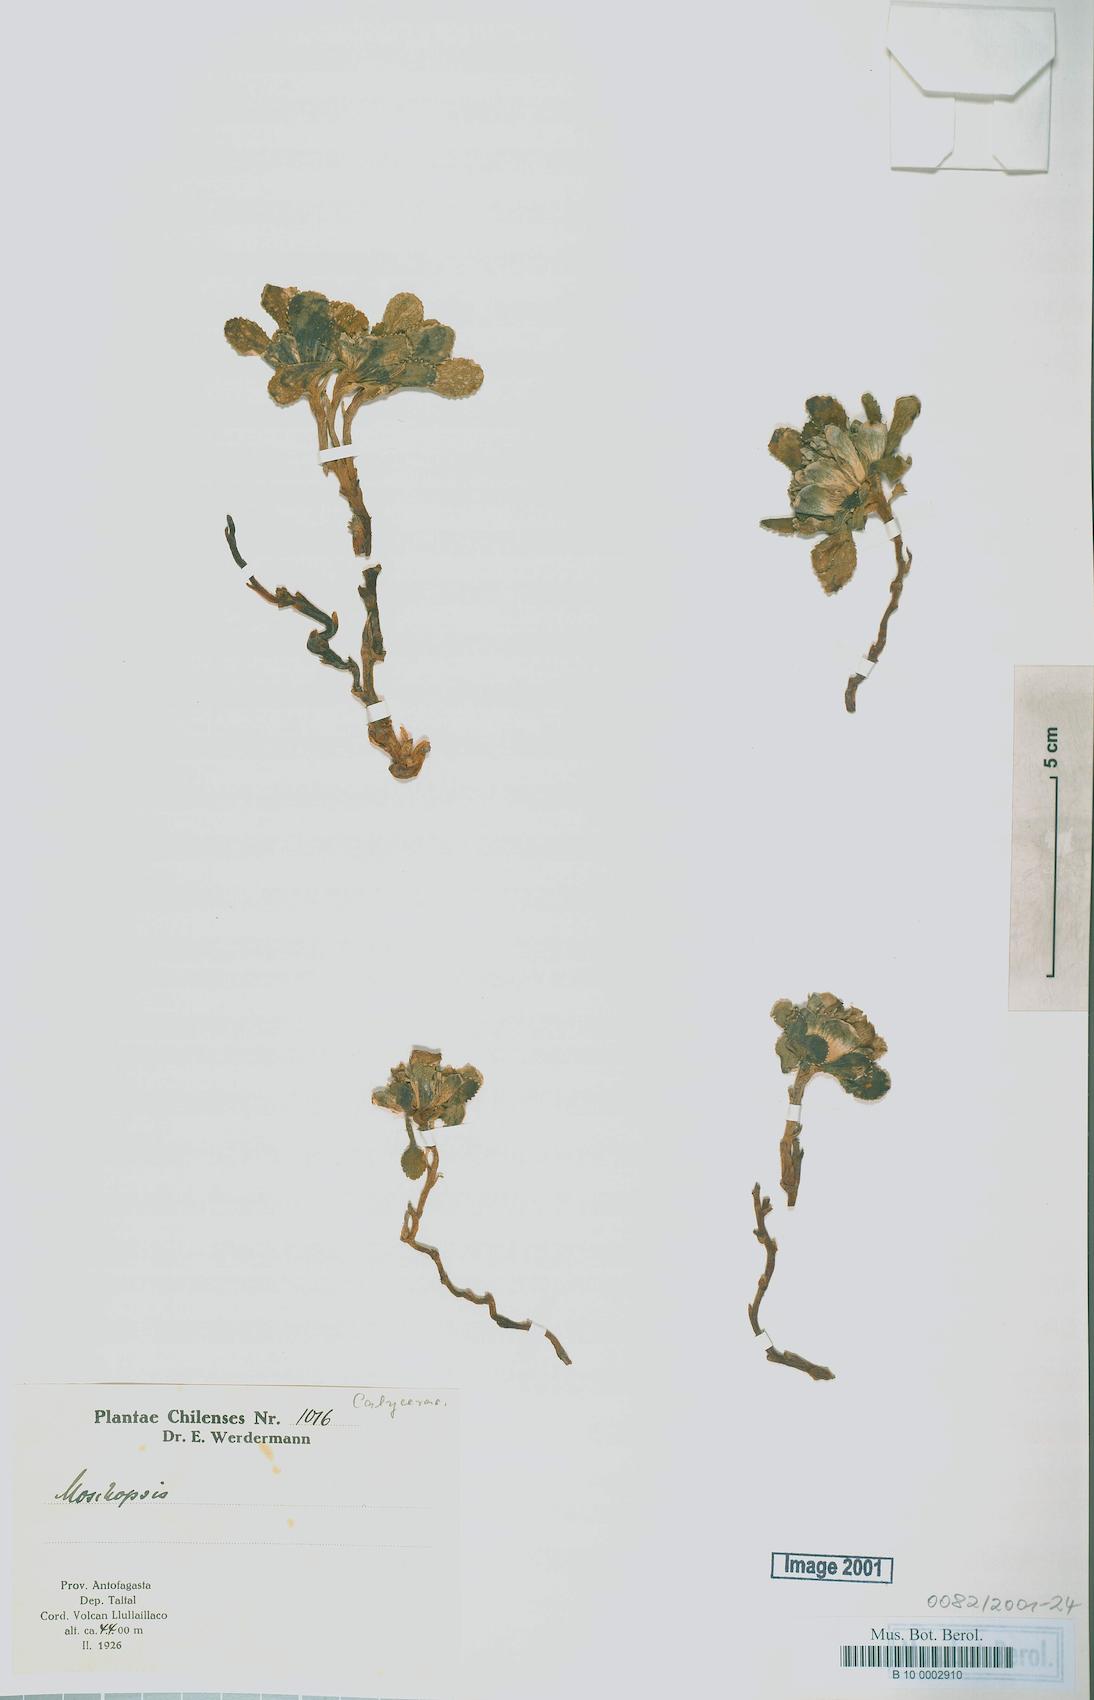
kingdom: Plantae
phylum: Tracheophyta
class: Magnoliopsida
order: Asterales
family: Calyceraceae
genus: Calycera
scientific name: Calycera
